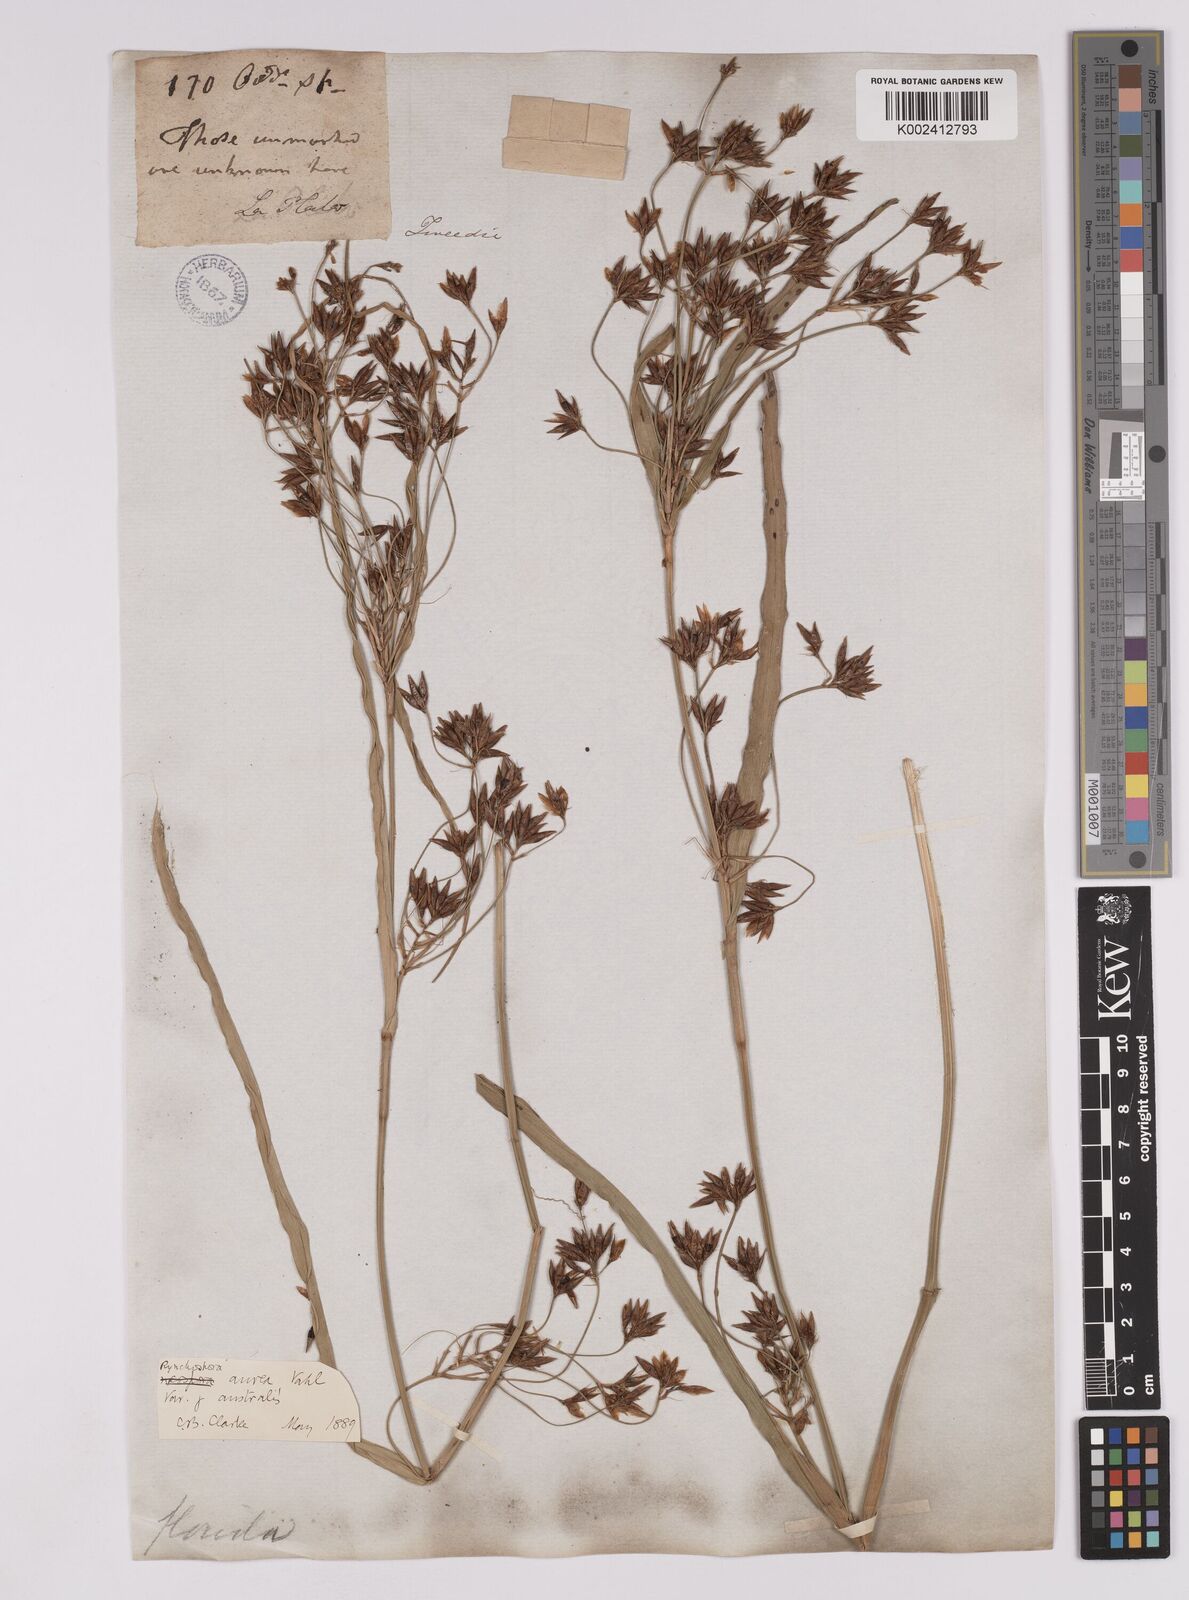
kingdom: Plantae
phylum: Tracheophyta
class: Liliopsida
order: Poales
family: Cyperaceae
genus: Rhynchospora
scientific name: Rhynchospora corymbosa
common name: Golden beak sedge
